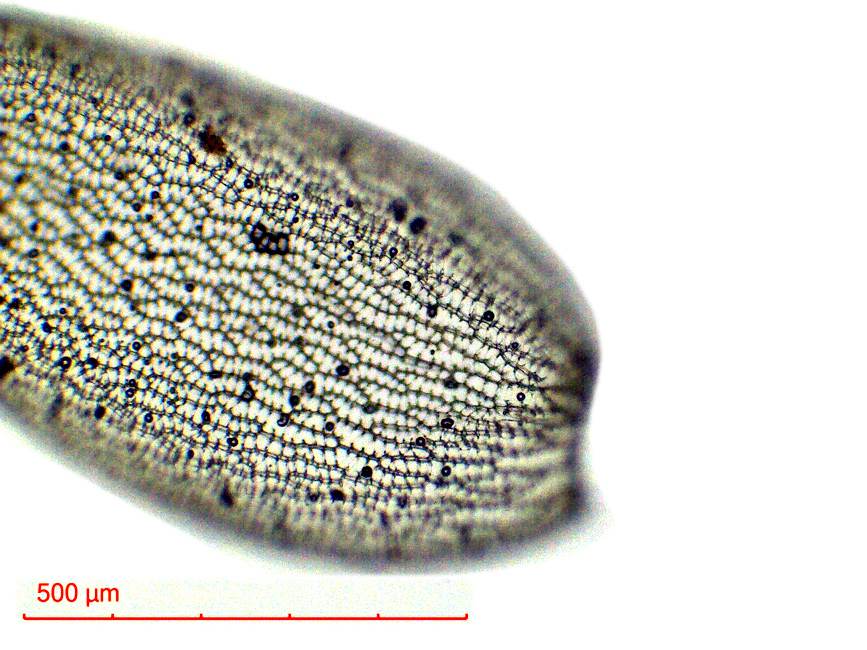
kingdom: Plantae
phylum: Bryophyta
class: Sphagnopsida
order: Sphagnales
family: Sphagnaceae
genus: Sphagnum
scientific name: Sphagnum tumidulum
